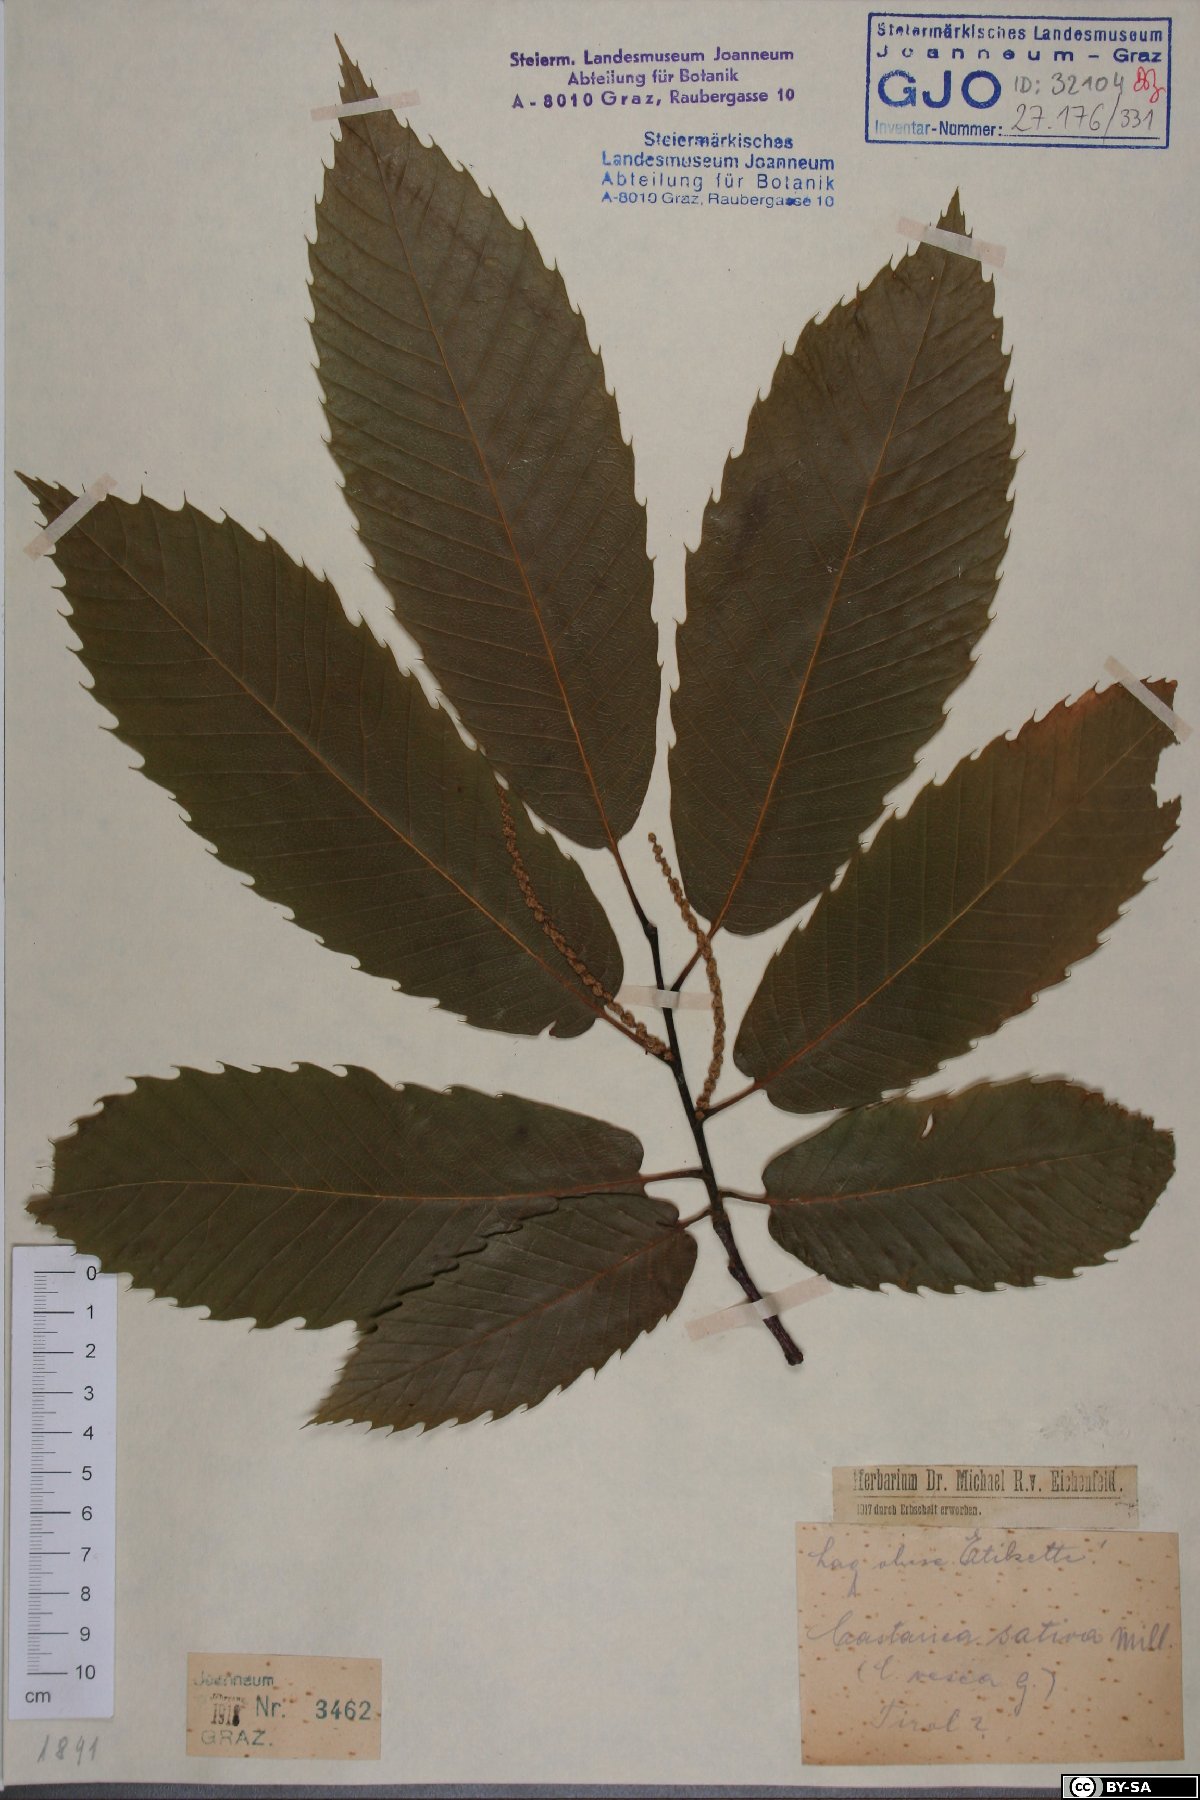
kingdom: Plantae
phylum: Tracheophyta
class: Magnoliopsida
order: Fagales
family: Fagaceae
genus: Castanea
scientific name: Castanea sativa
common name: Sweet chestnut
